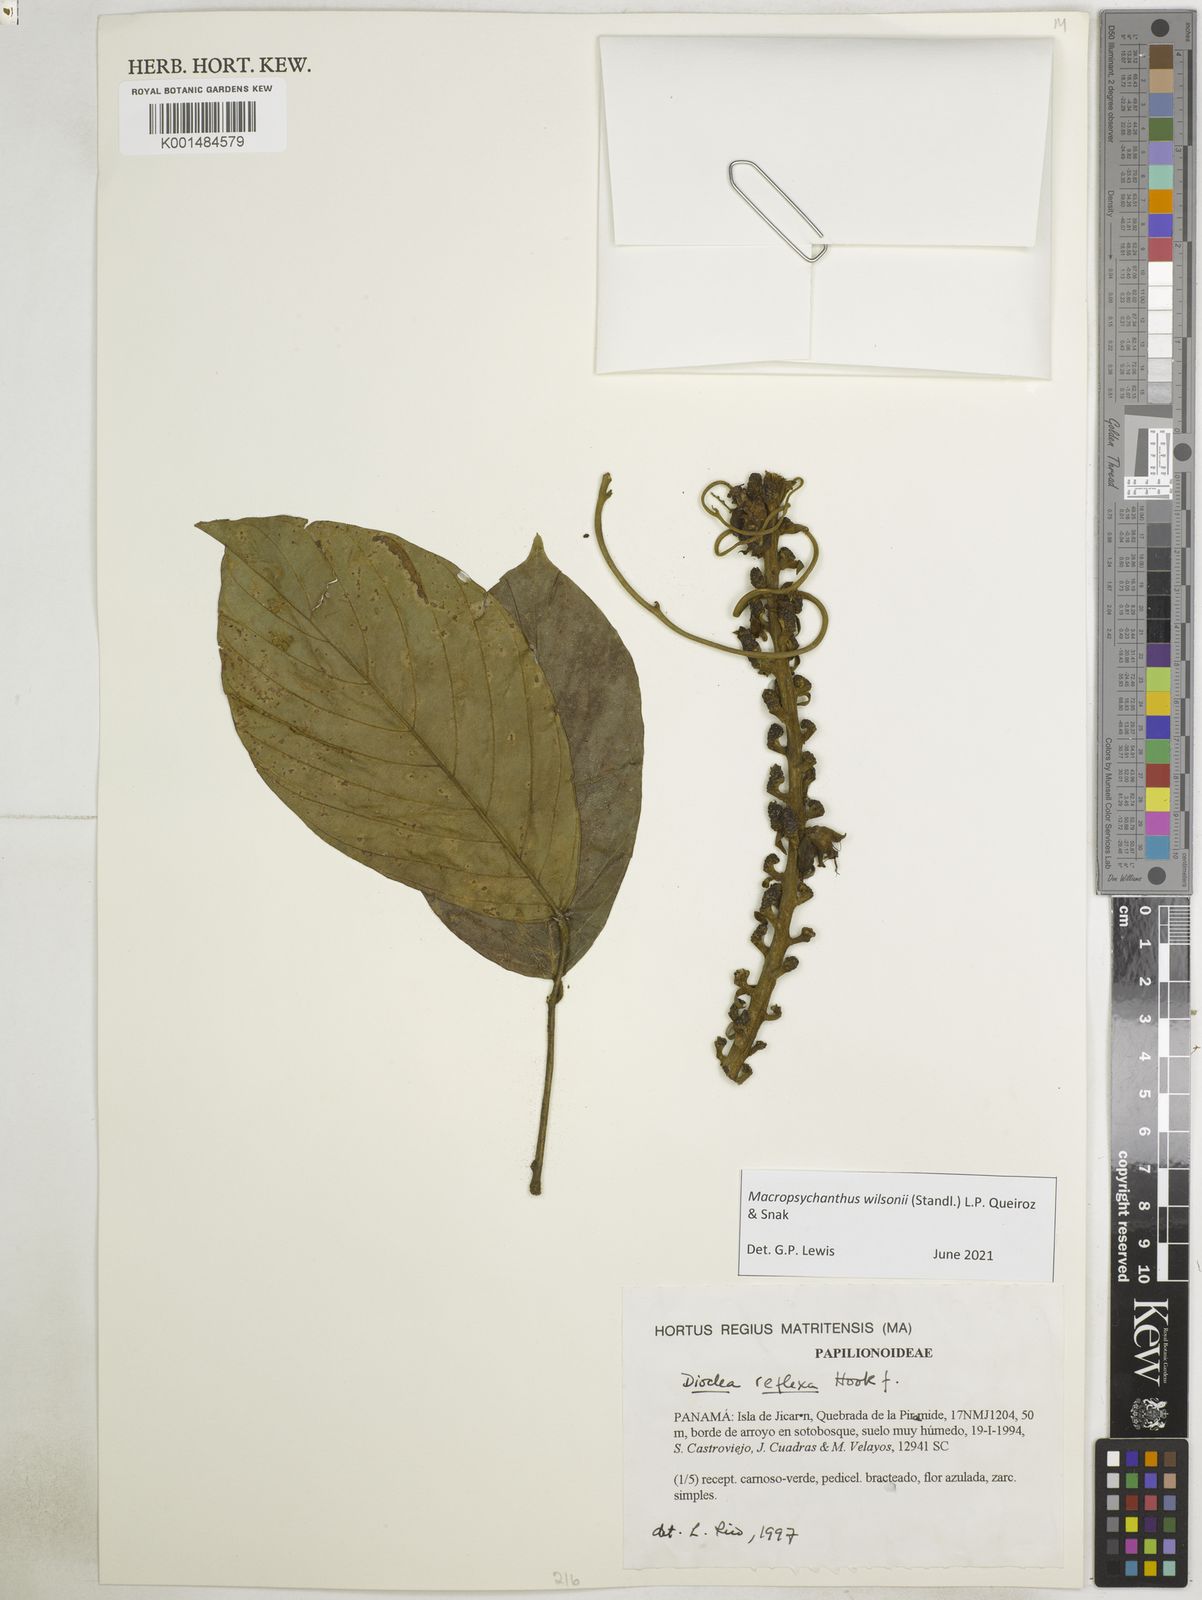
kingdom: Plantae
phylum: Tracheophyta
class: Magnoliopsida
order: Fabales
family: Fabaceae
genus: Macropsychanthus
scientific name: Macropsychanthus
